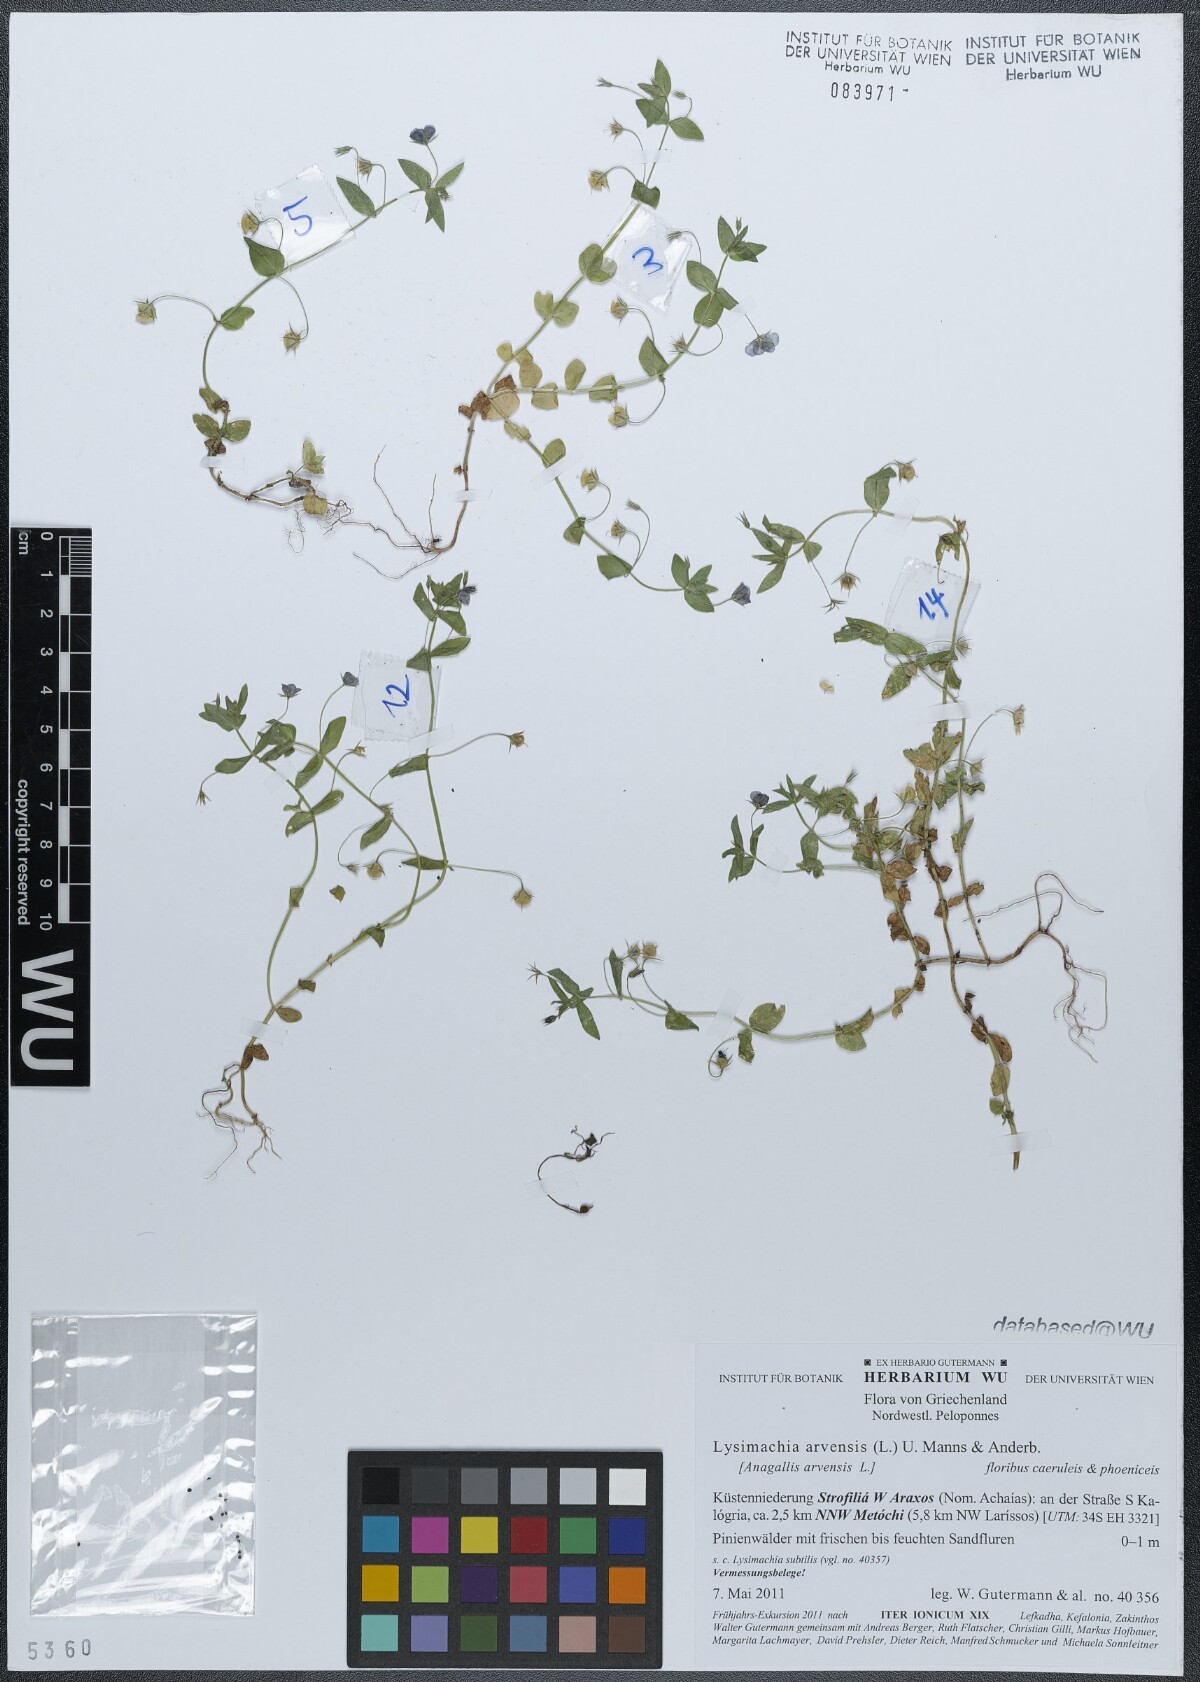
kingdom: Plantae
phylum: Tracheophyta
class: Magnoliopsida
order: Ericales
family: Primulaceae
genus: Lysimachia
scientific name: Lysimachia arvensis
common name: Scarlet pimpernel
